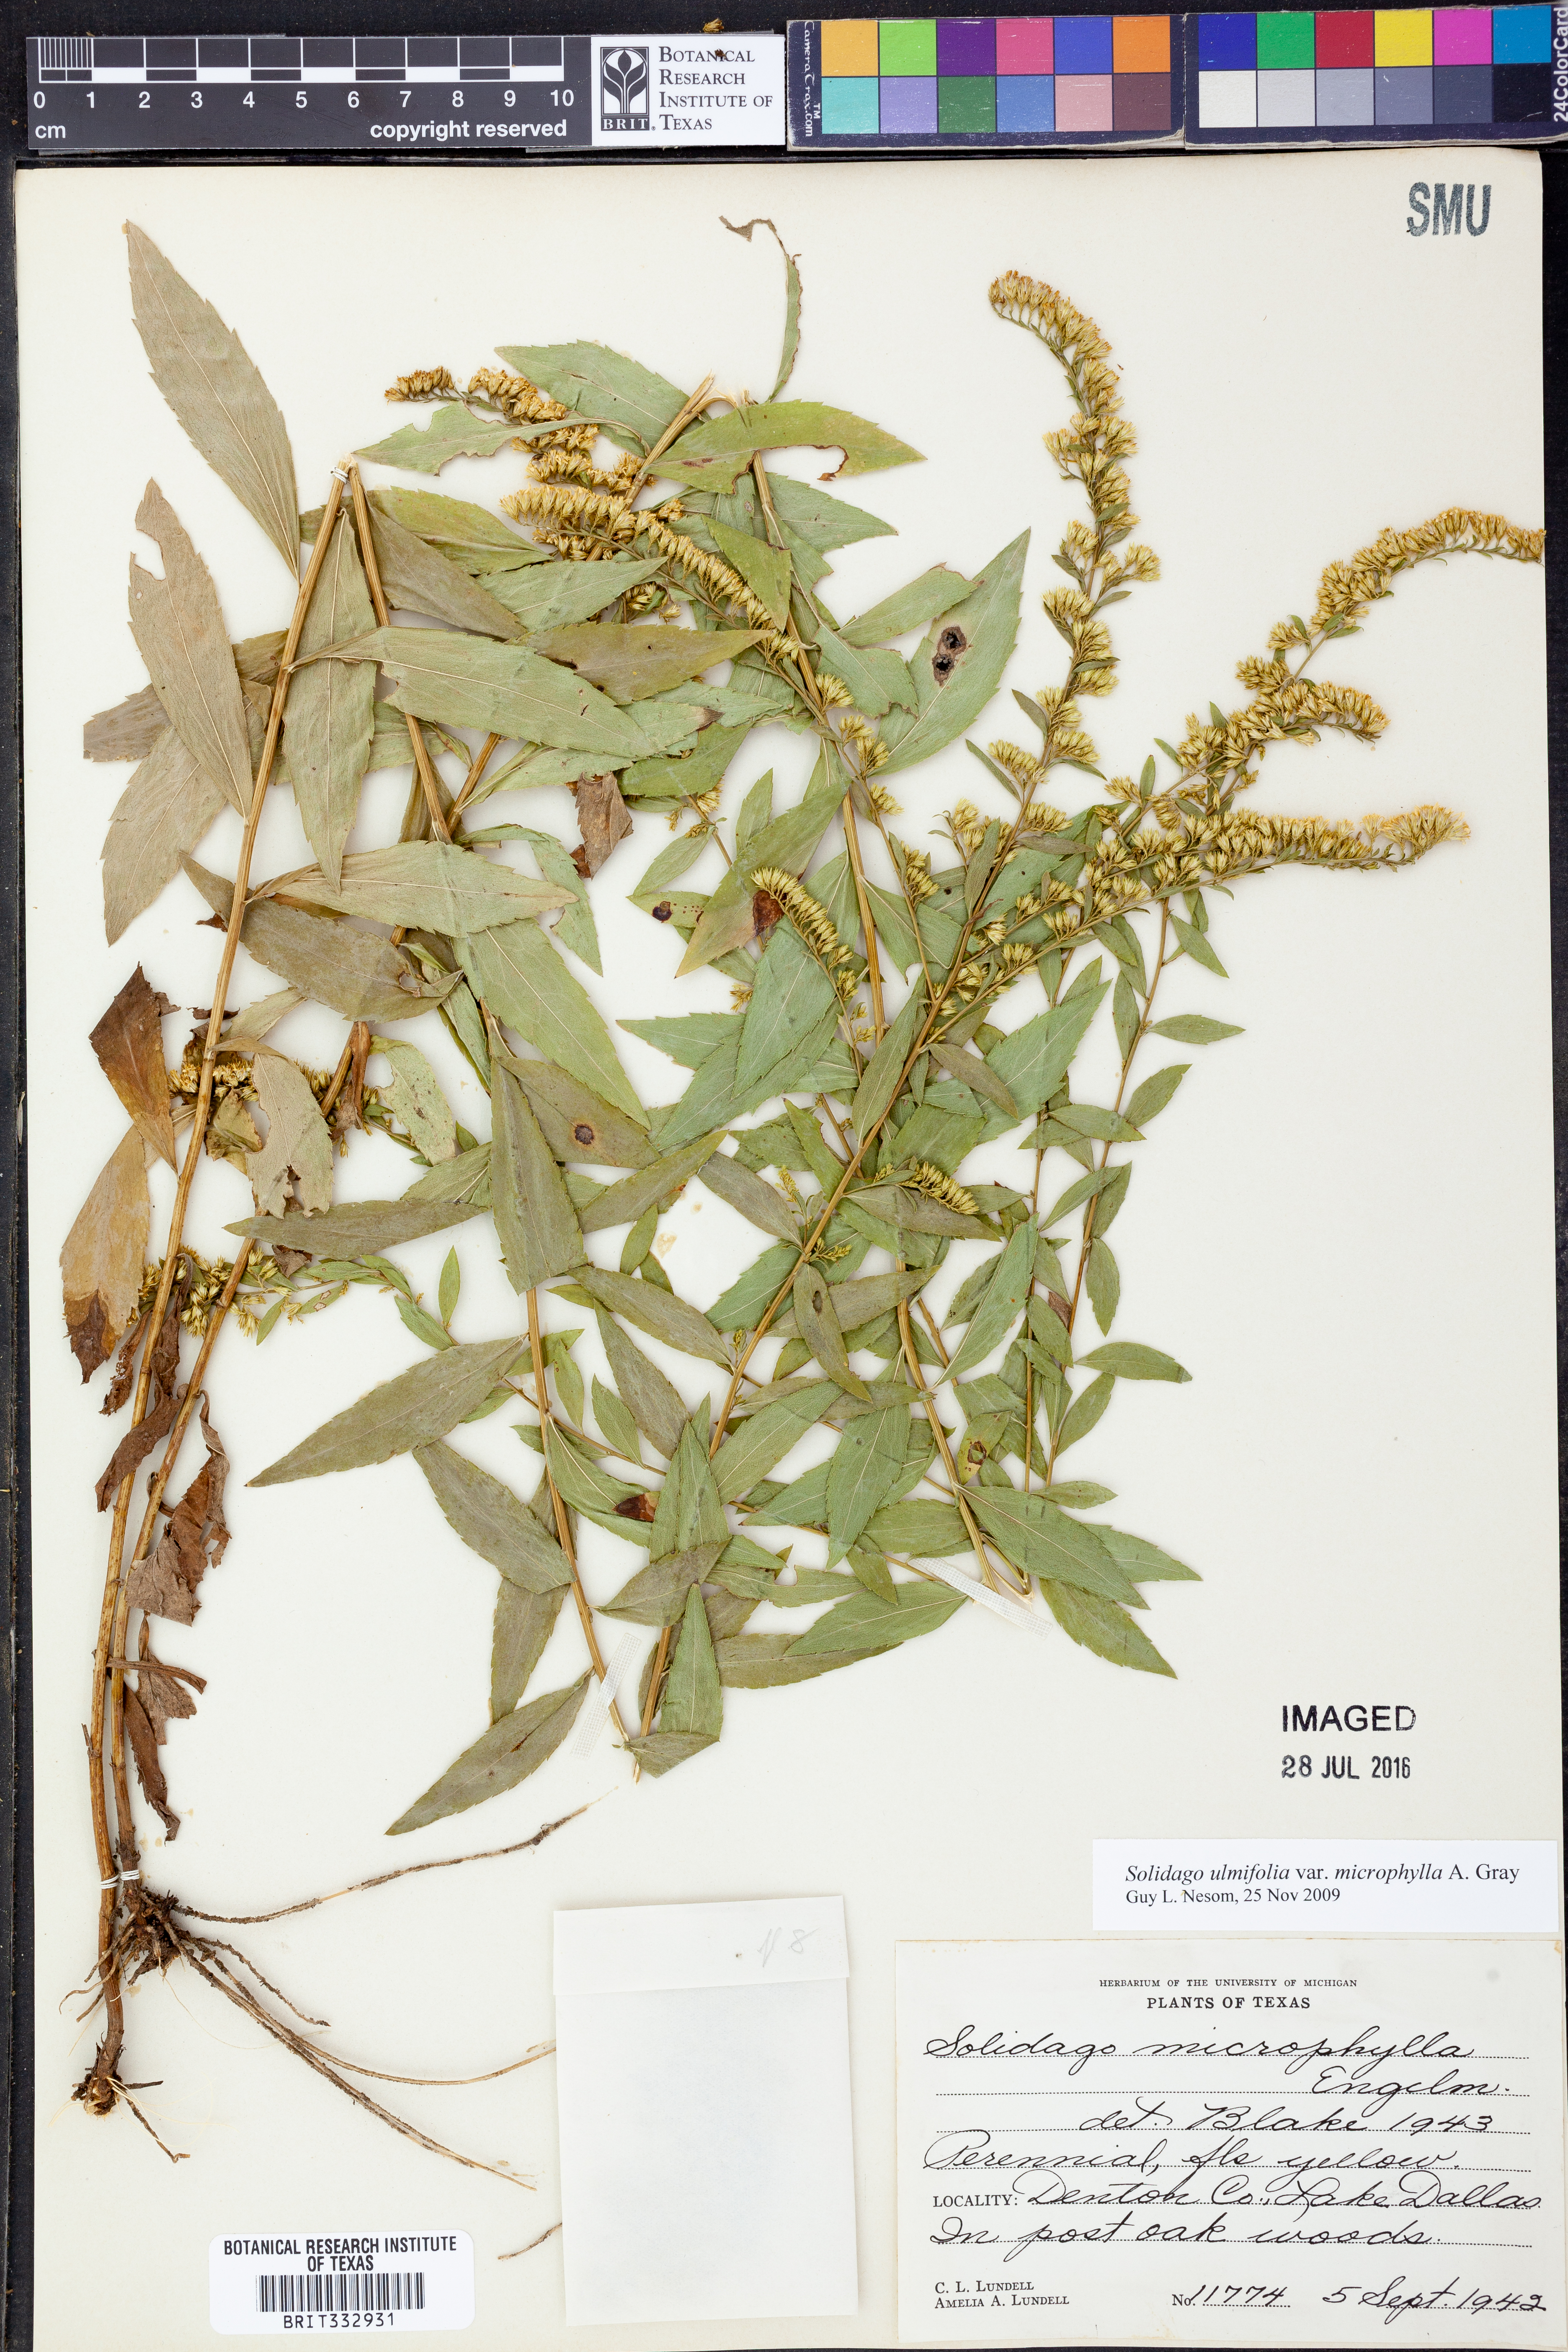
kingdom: Plantae
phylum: Tracheophyta
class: Magnoliopsida
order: Asterales
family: Asteraceae
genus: Solidago
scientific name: Solidago delicatula
